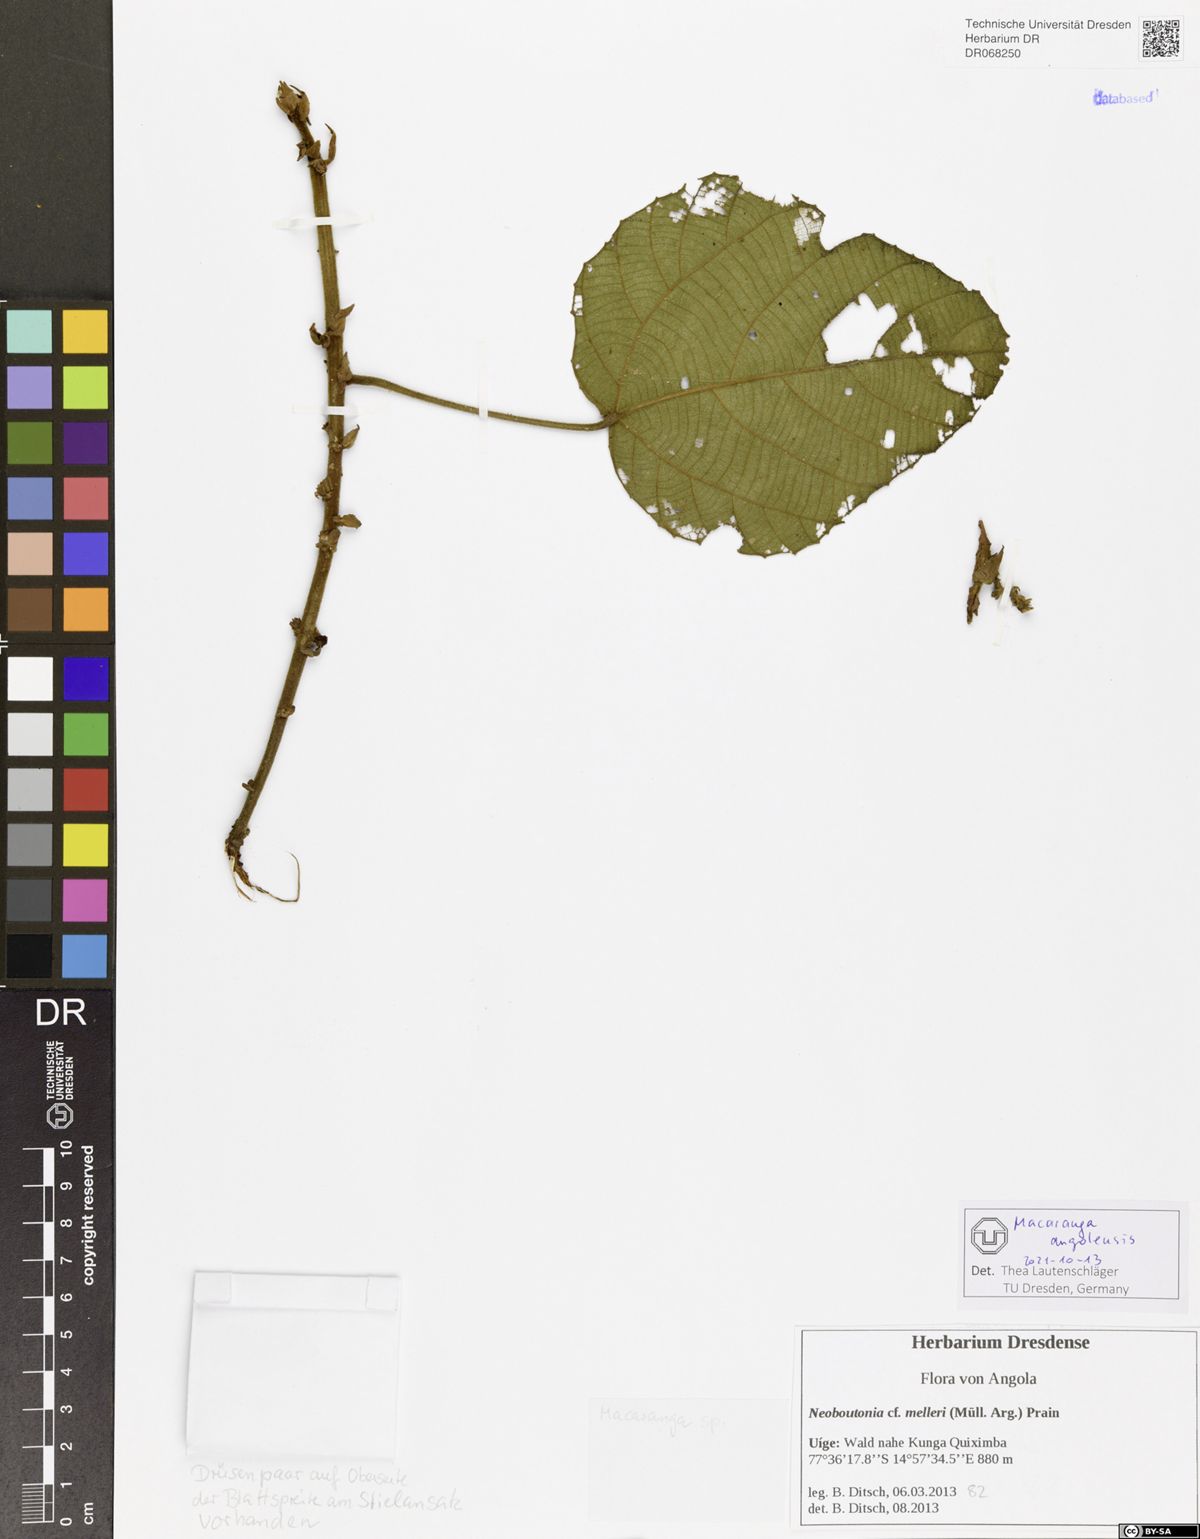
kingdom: Plantae
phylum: Tracheophyta
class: Magnoliopsida
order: Malpighiales
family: Euphorbiaceae
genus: Macaranga
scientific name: Macaranga angolensis
